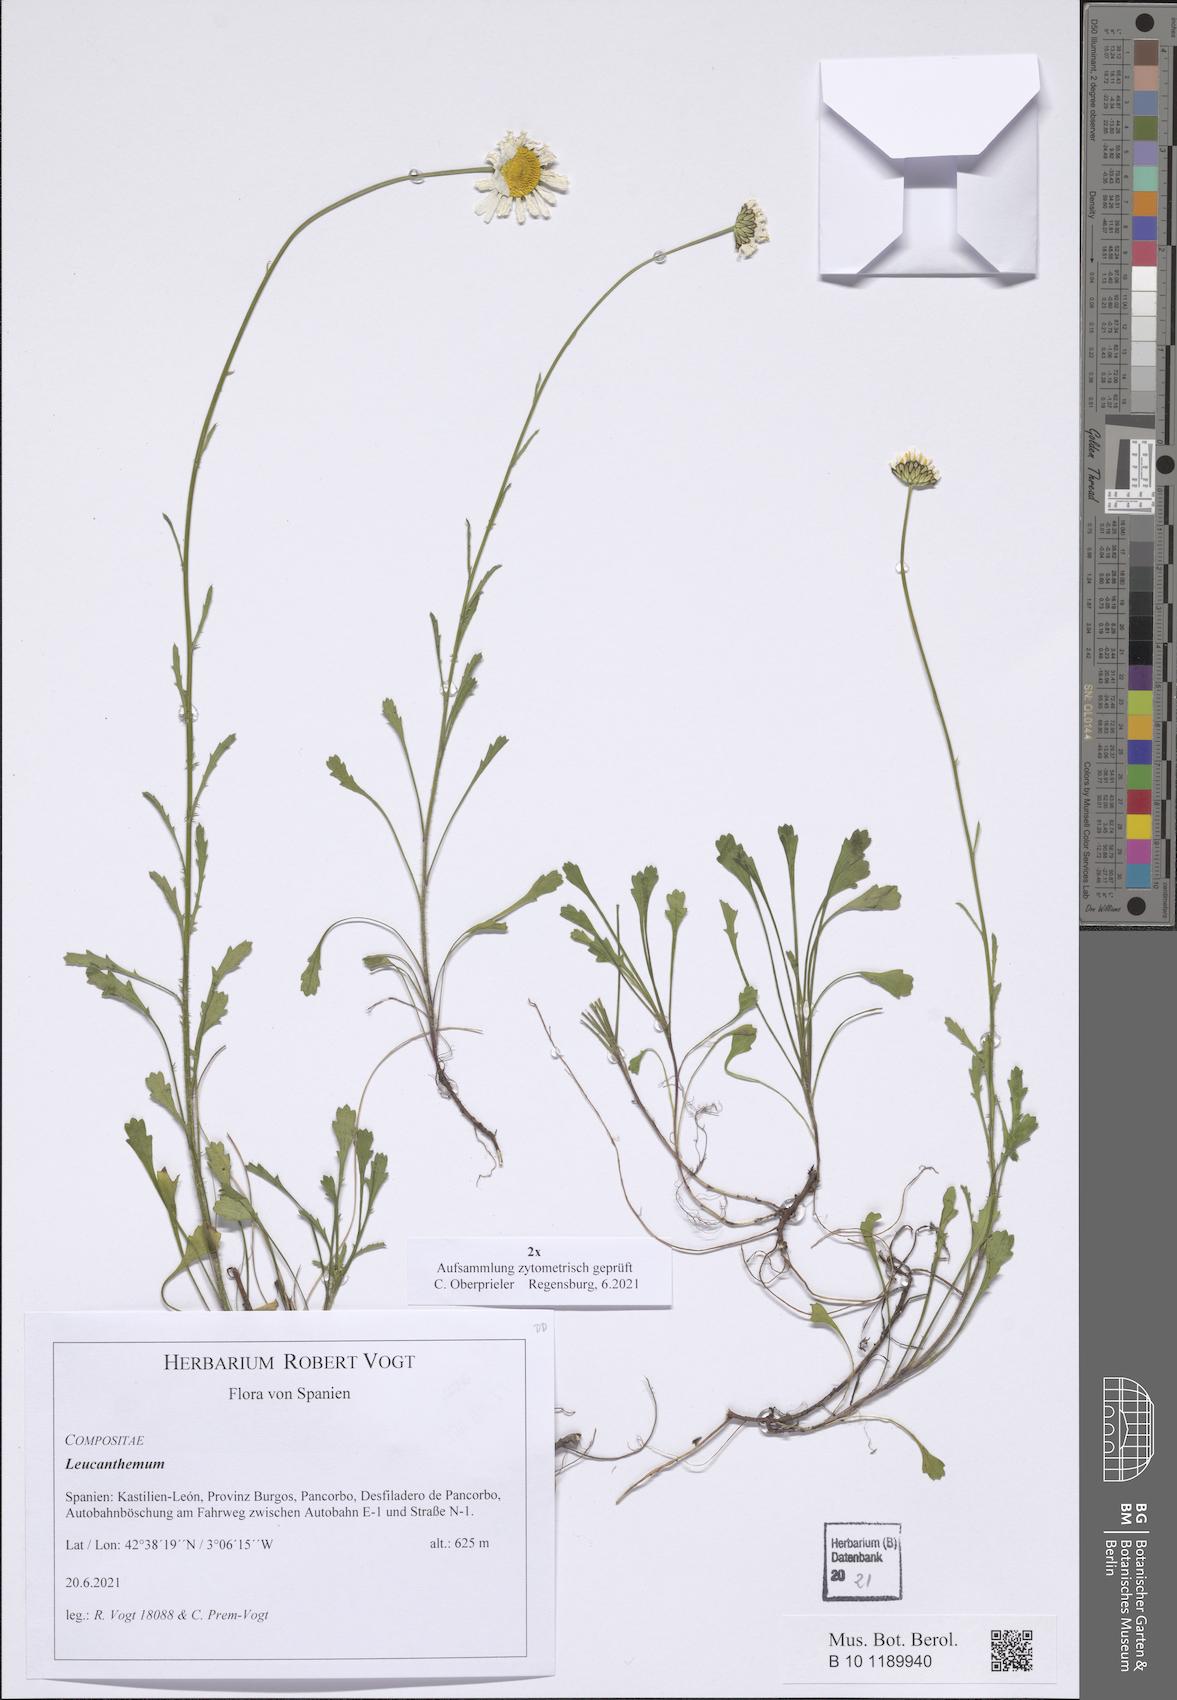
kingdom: Plantae
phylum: Tracheophyta
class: Magnoliopsida
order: Asterales
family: Asteraceae
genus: Leucanthemum
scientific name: Leucanthemum
